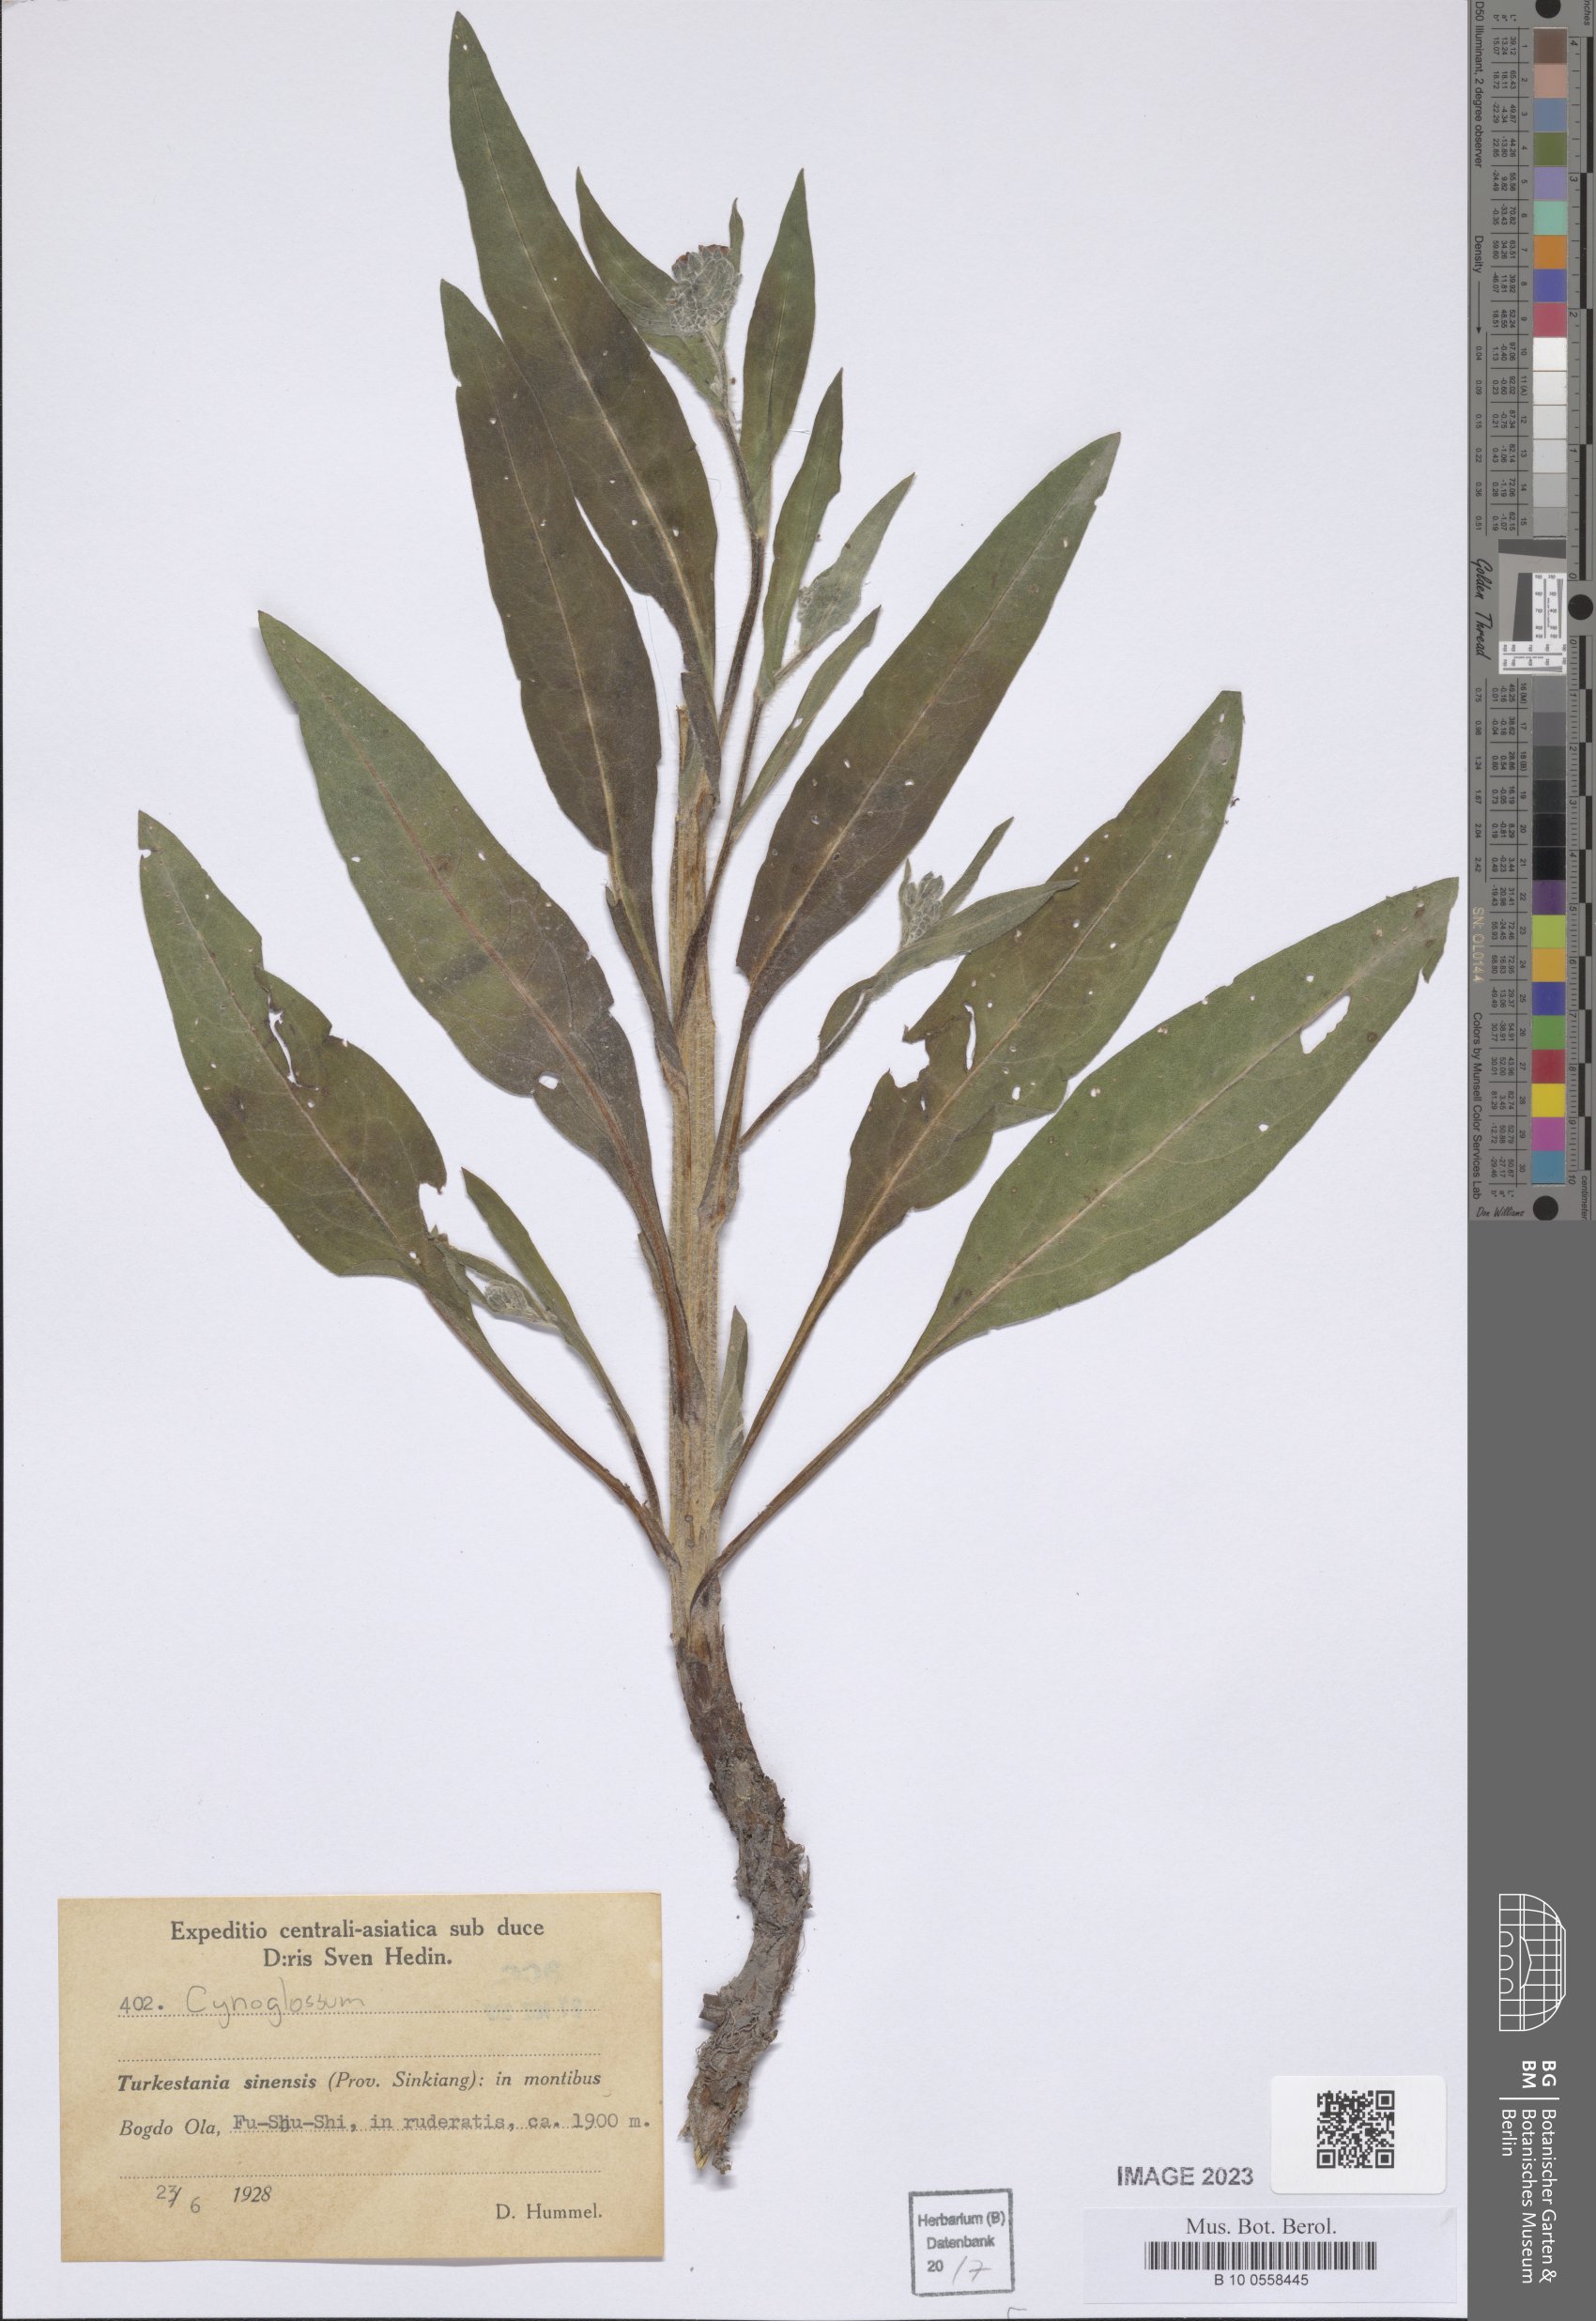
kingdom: Plantae
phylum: Tracheophyta
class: Magnoliopsida
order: Boraginales
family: Boraginaceae
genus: Cynoglossum
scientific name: Cynoglossum
